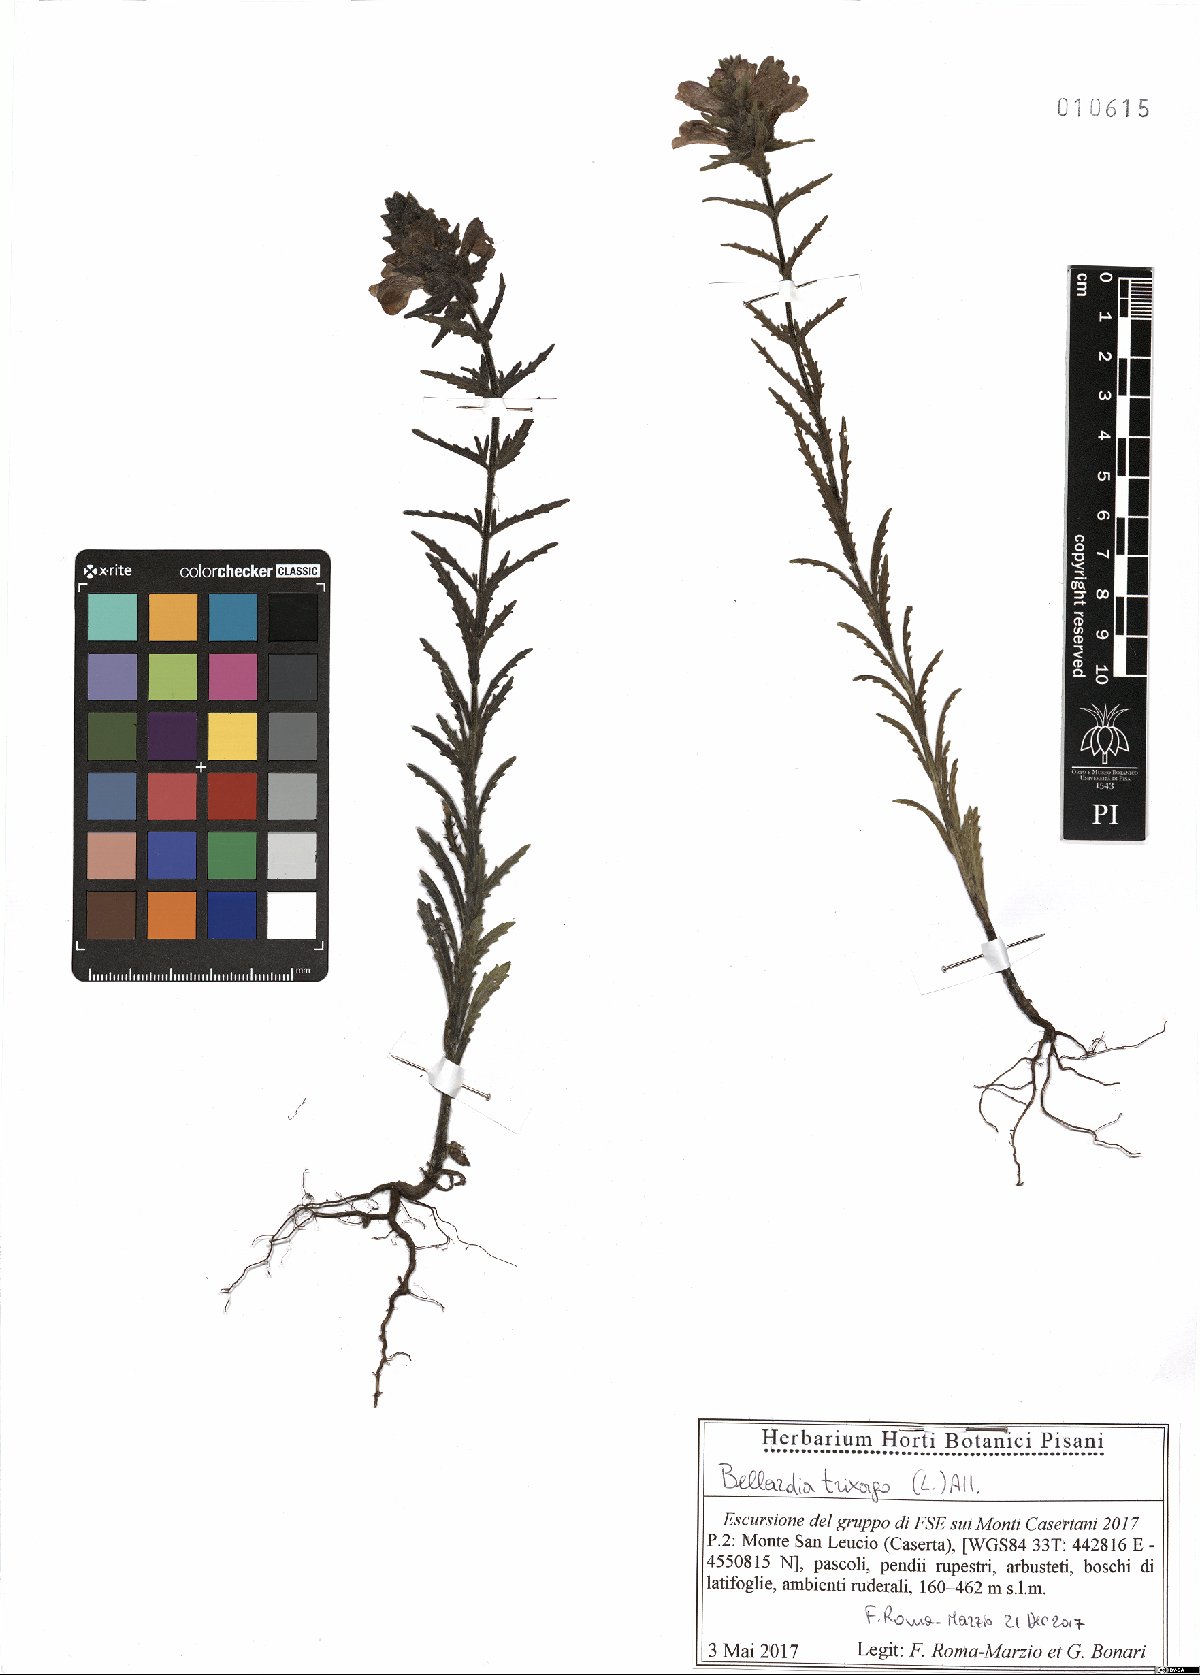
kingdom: Plantae
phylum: Tracheophyta
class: Magnoliopsida
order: Lamiales
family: Orobanchaceae
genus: Bellardia
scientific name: Bellardia trixago
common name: Mediterranean lineseed
